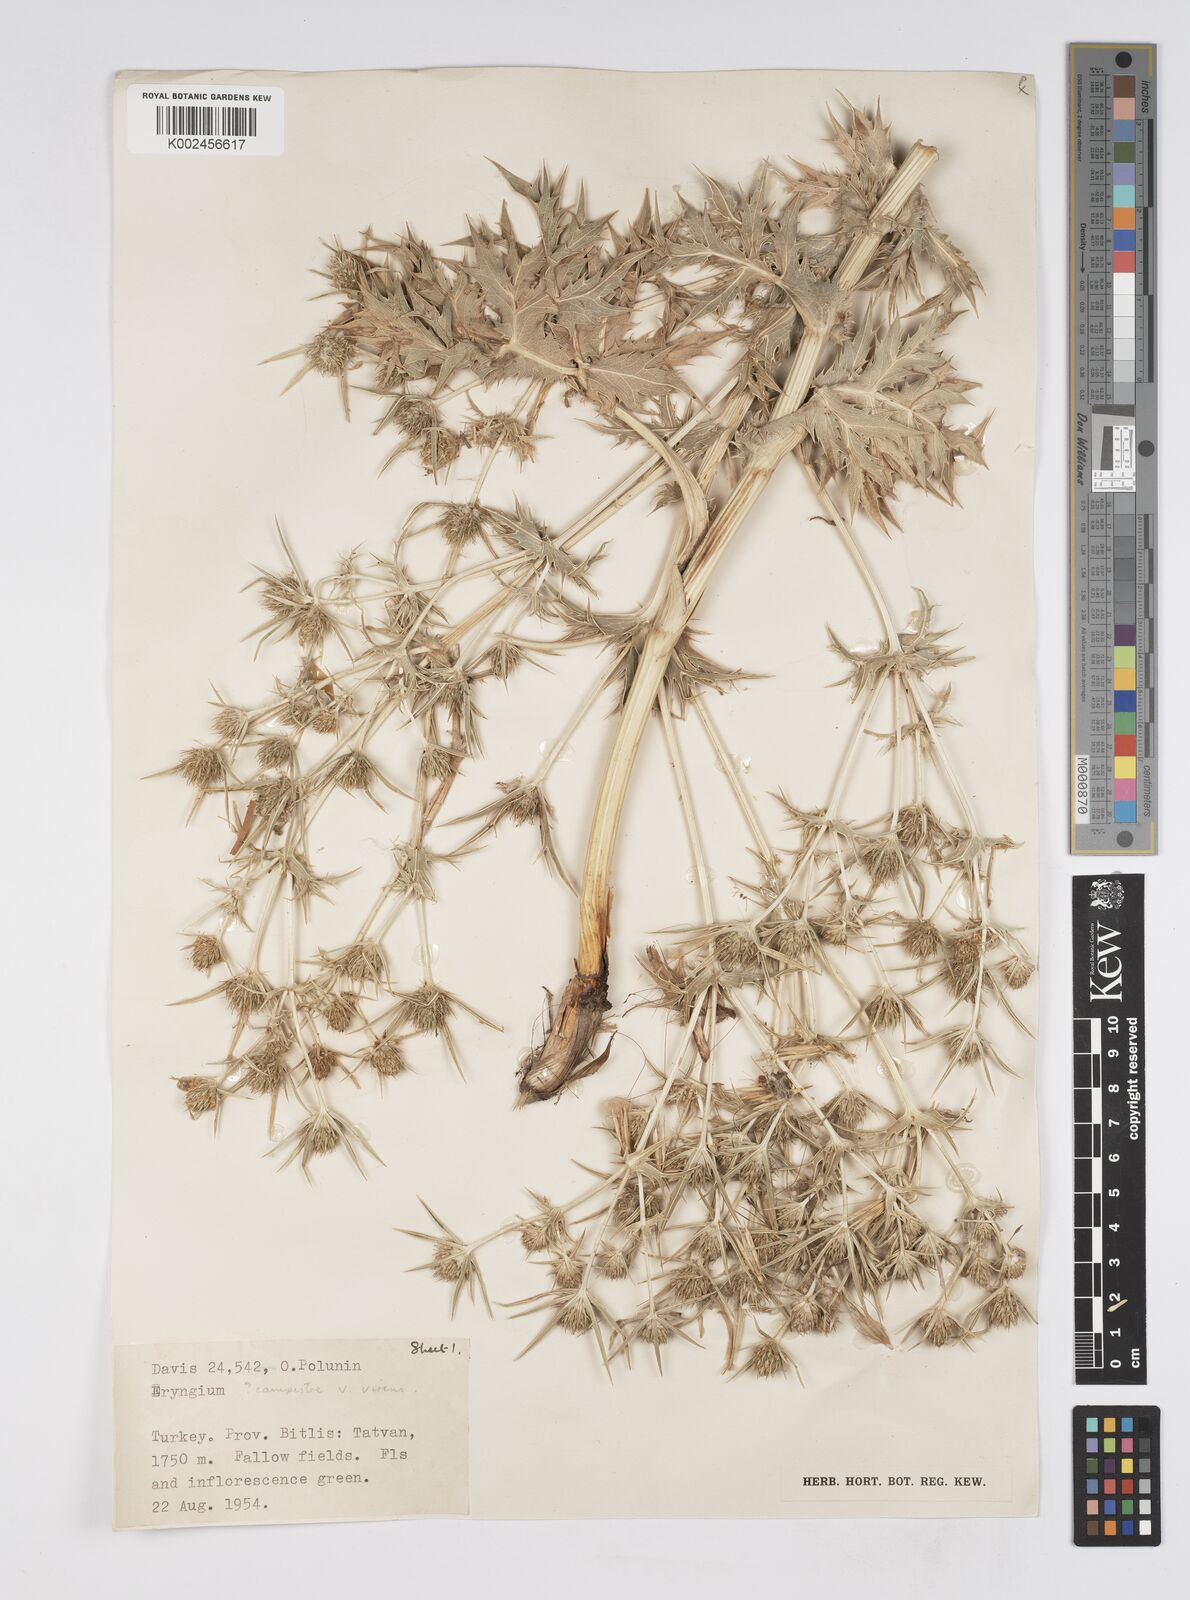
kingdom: Plantae
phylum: Tracheophyta
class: Magnoliopsida
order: Apiales
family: Apiaceae
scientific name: Apiaceae
